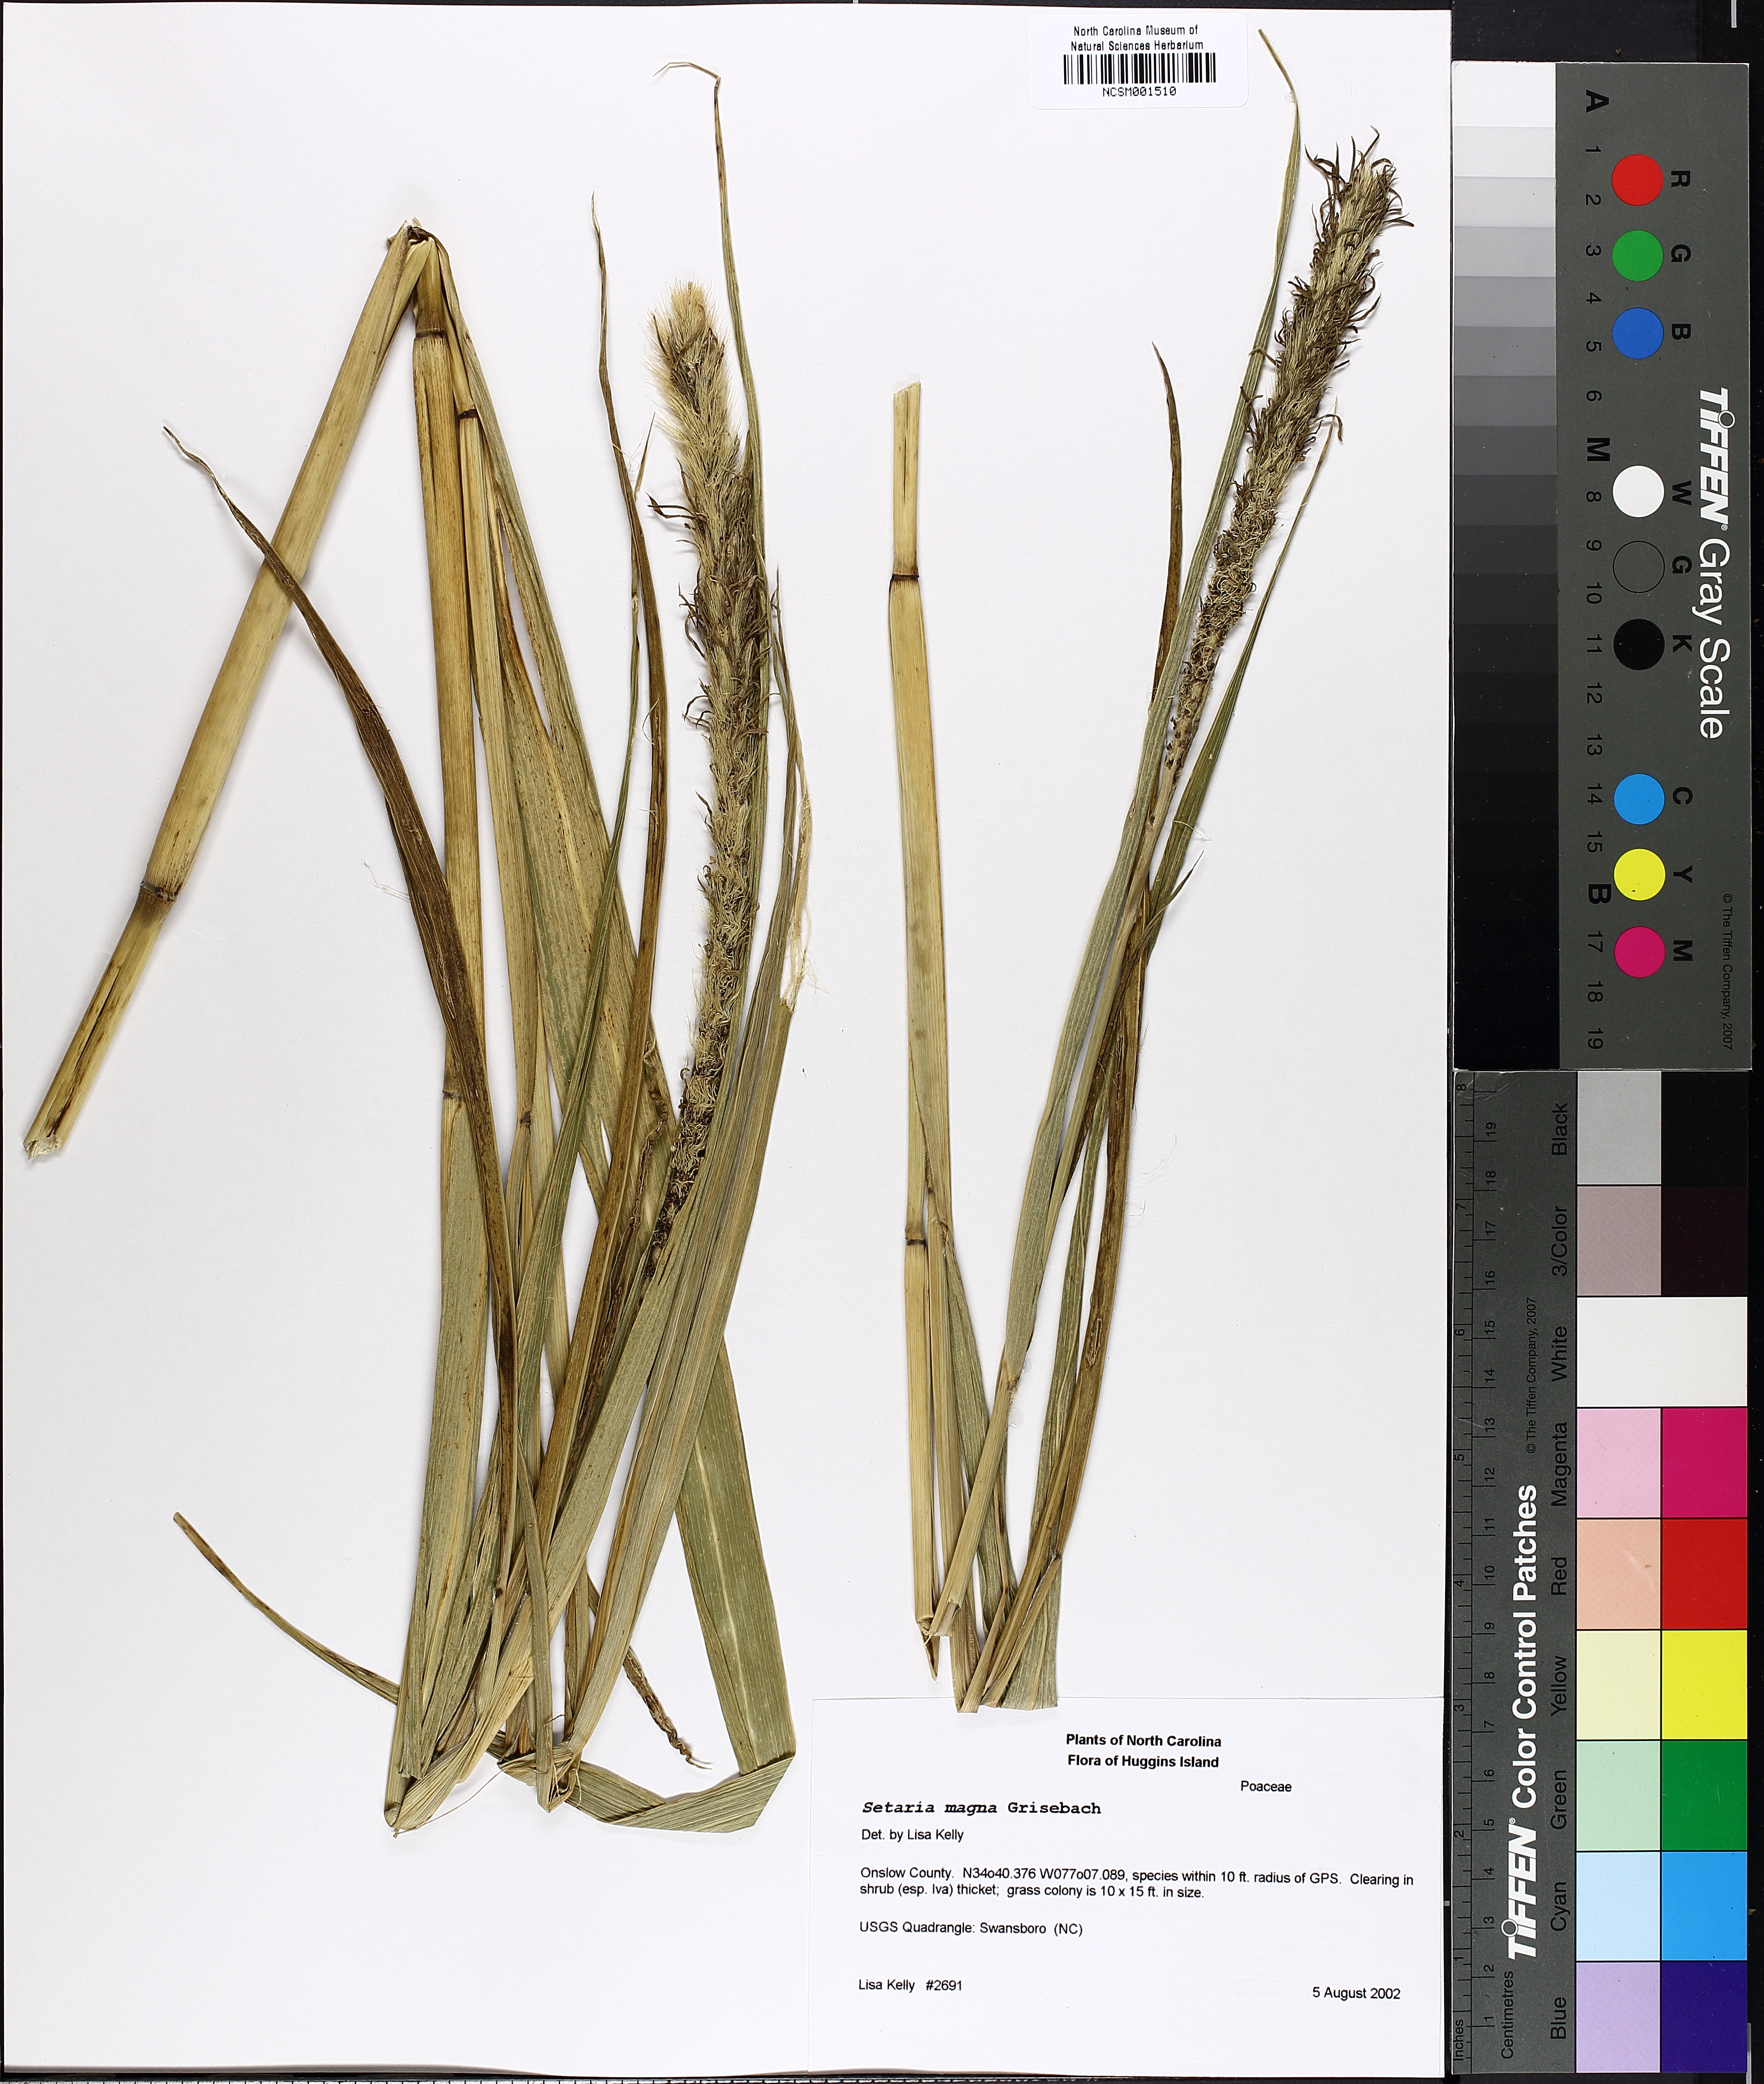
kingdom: Plantae
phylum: Tracheophyta
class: Liliopsida
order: Poales
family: Poaceae
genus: Setaria
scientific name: Setaria magna
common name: Giant bristle grass
